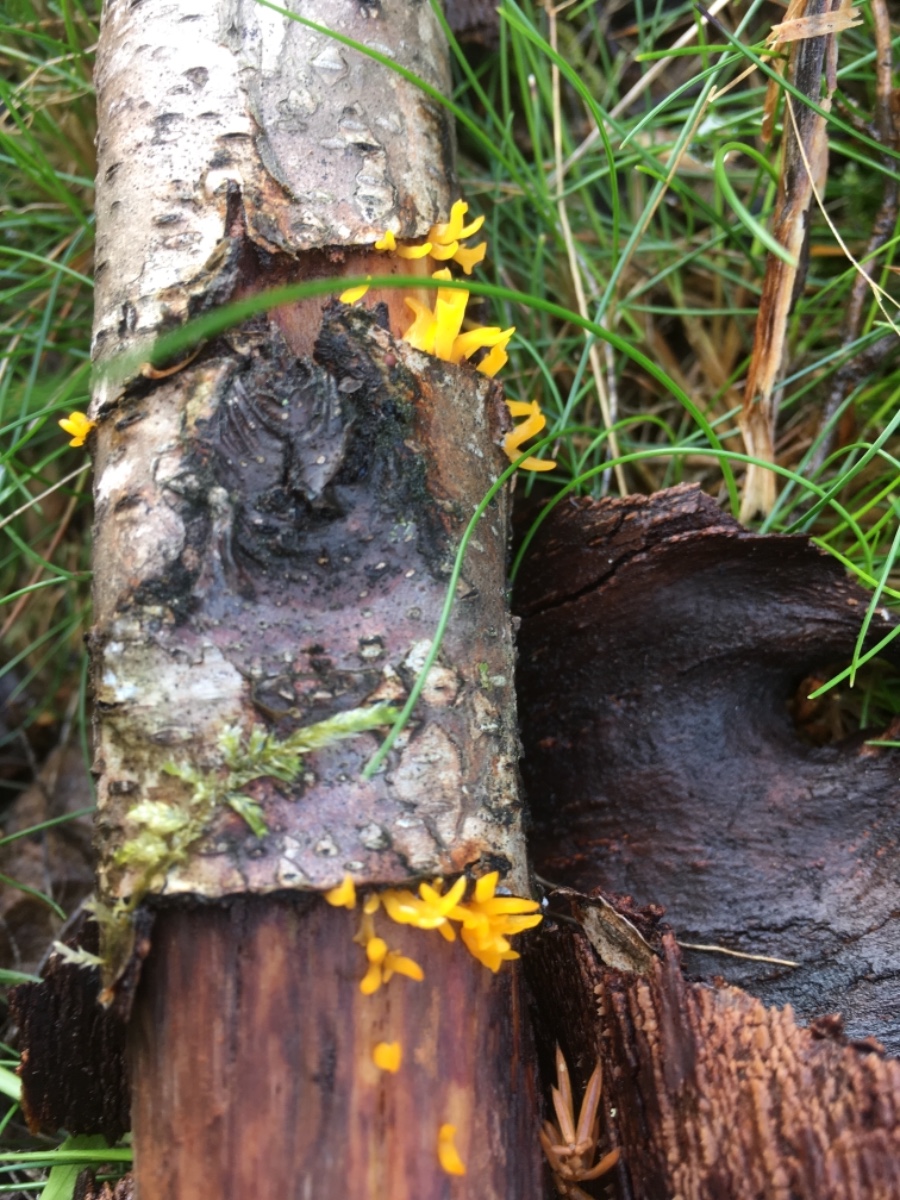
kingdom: Fungi
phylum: Basidiomycota
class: Dacrymycetes
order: Dacrymycetales
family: Dacrymycetaceae
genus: Calocera
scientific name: Calocera cornea
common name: liden guldgaffel
